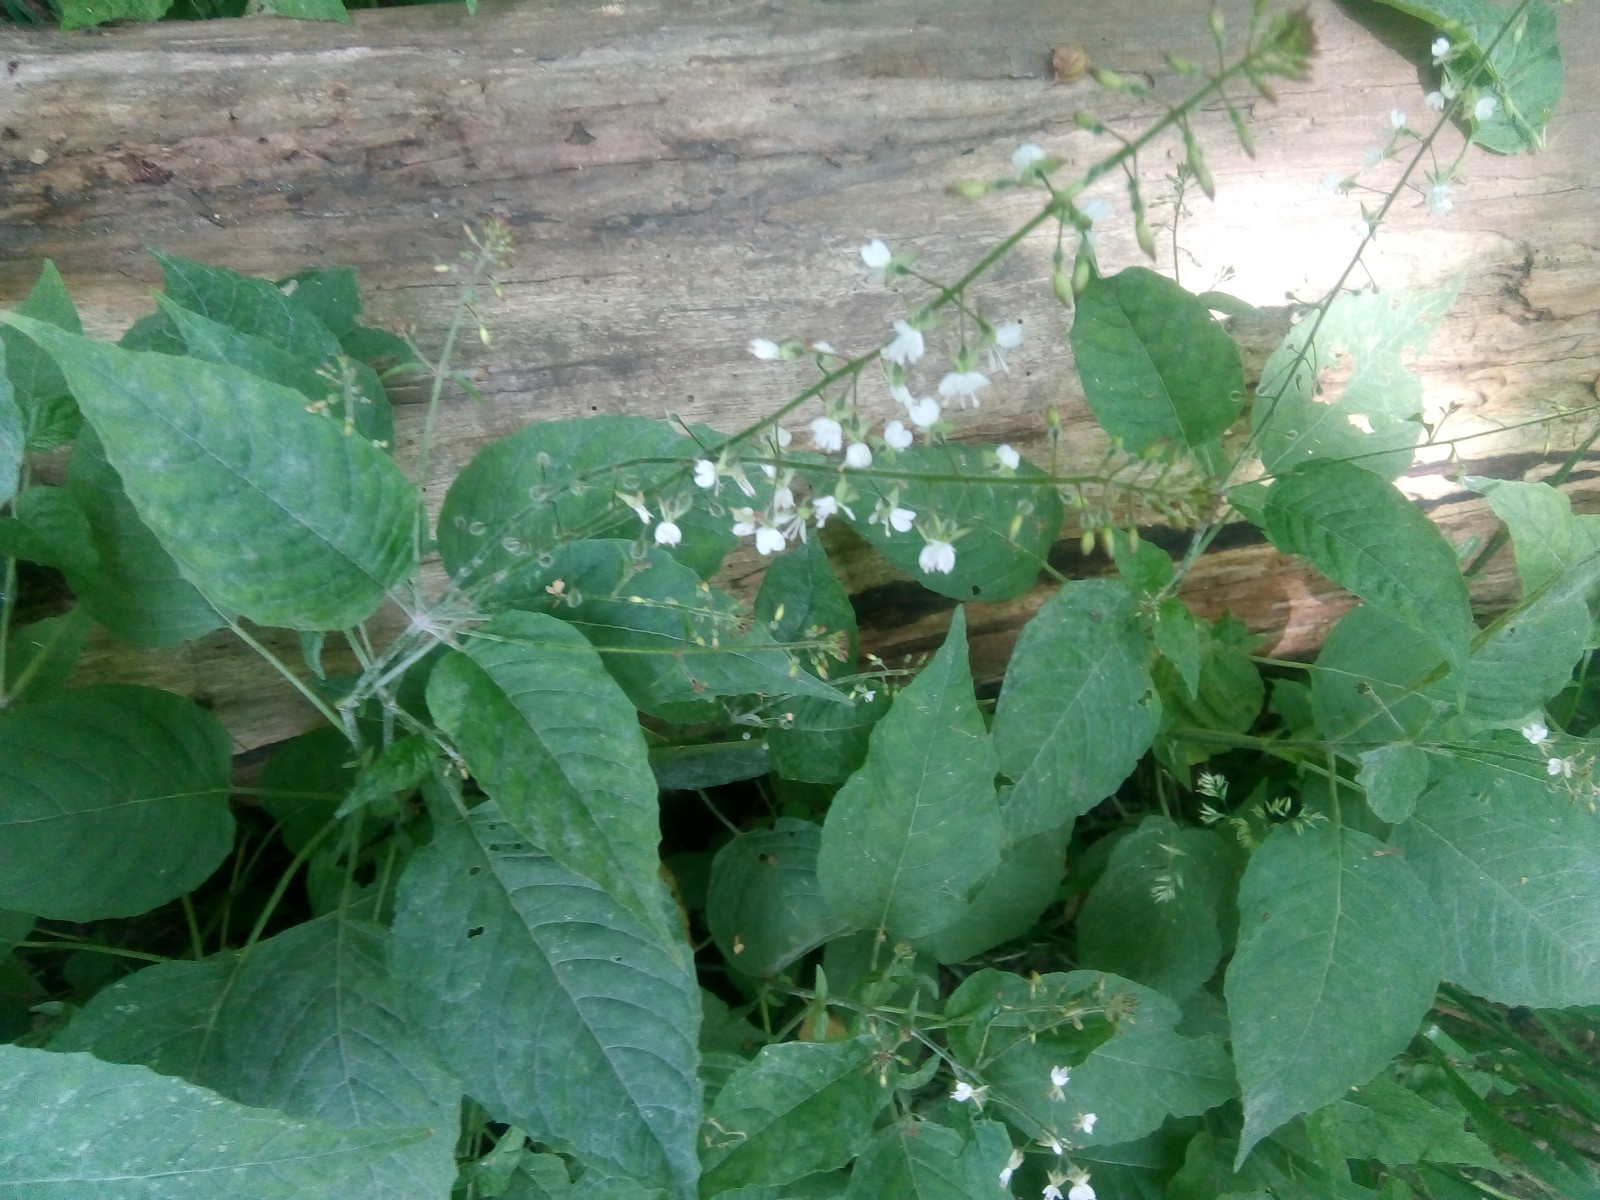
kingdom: Fungi
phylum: Ascomycota
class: Leotiomycetes
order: Helotiales
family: Erysiphaceae
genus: Erysiphe
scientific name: Erysiphe circaeae
